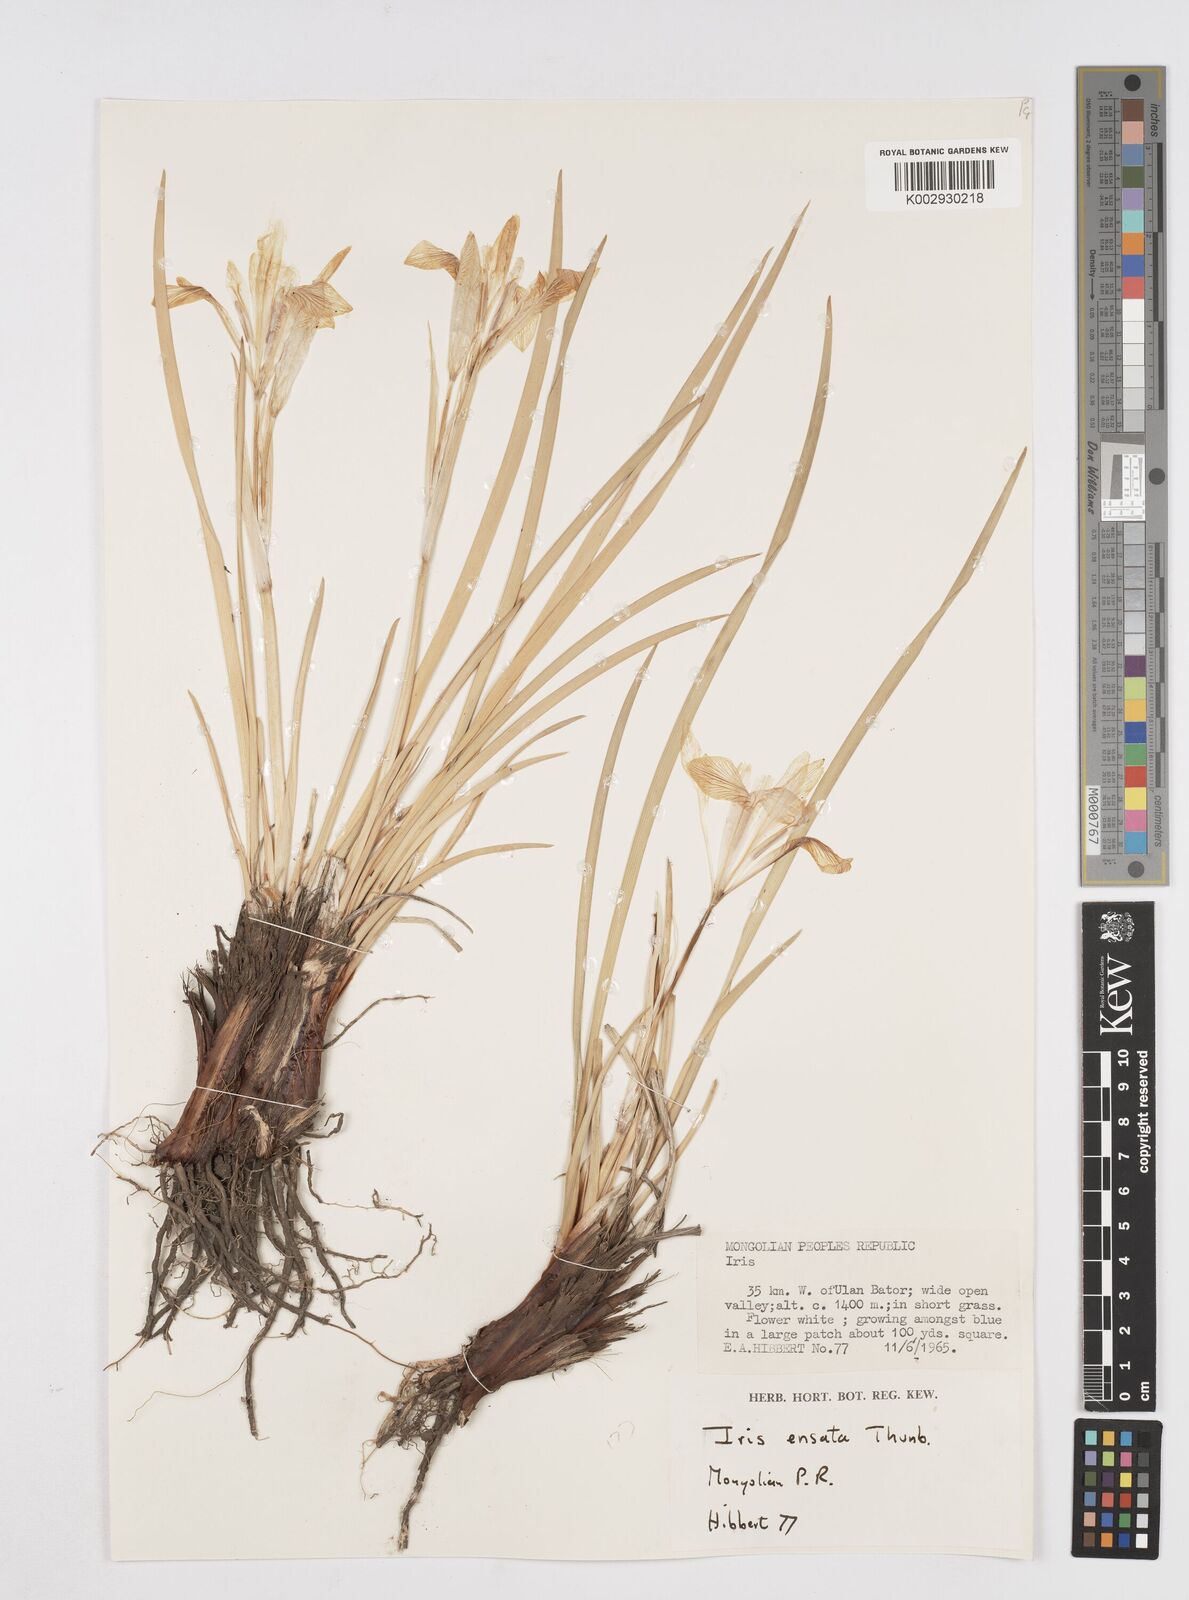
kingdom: Plantae
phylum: Tracheophyta
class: Liliopsida
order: Asparagales
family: Iridaceae
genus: Iris
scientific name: Iris lactea
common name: White-flower chinese iris
